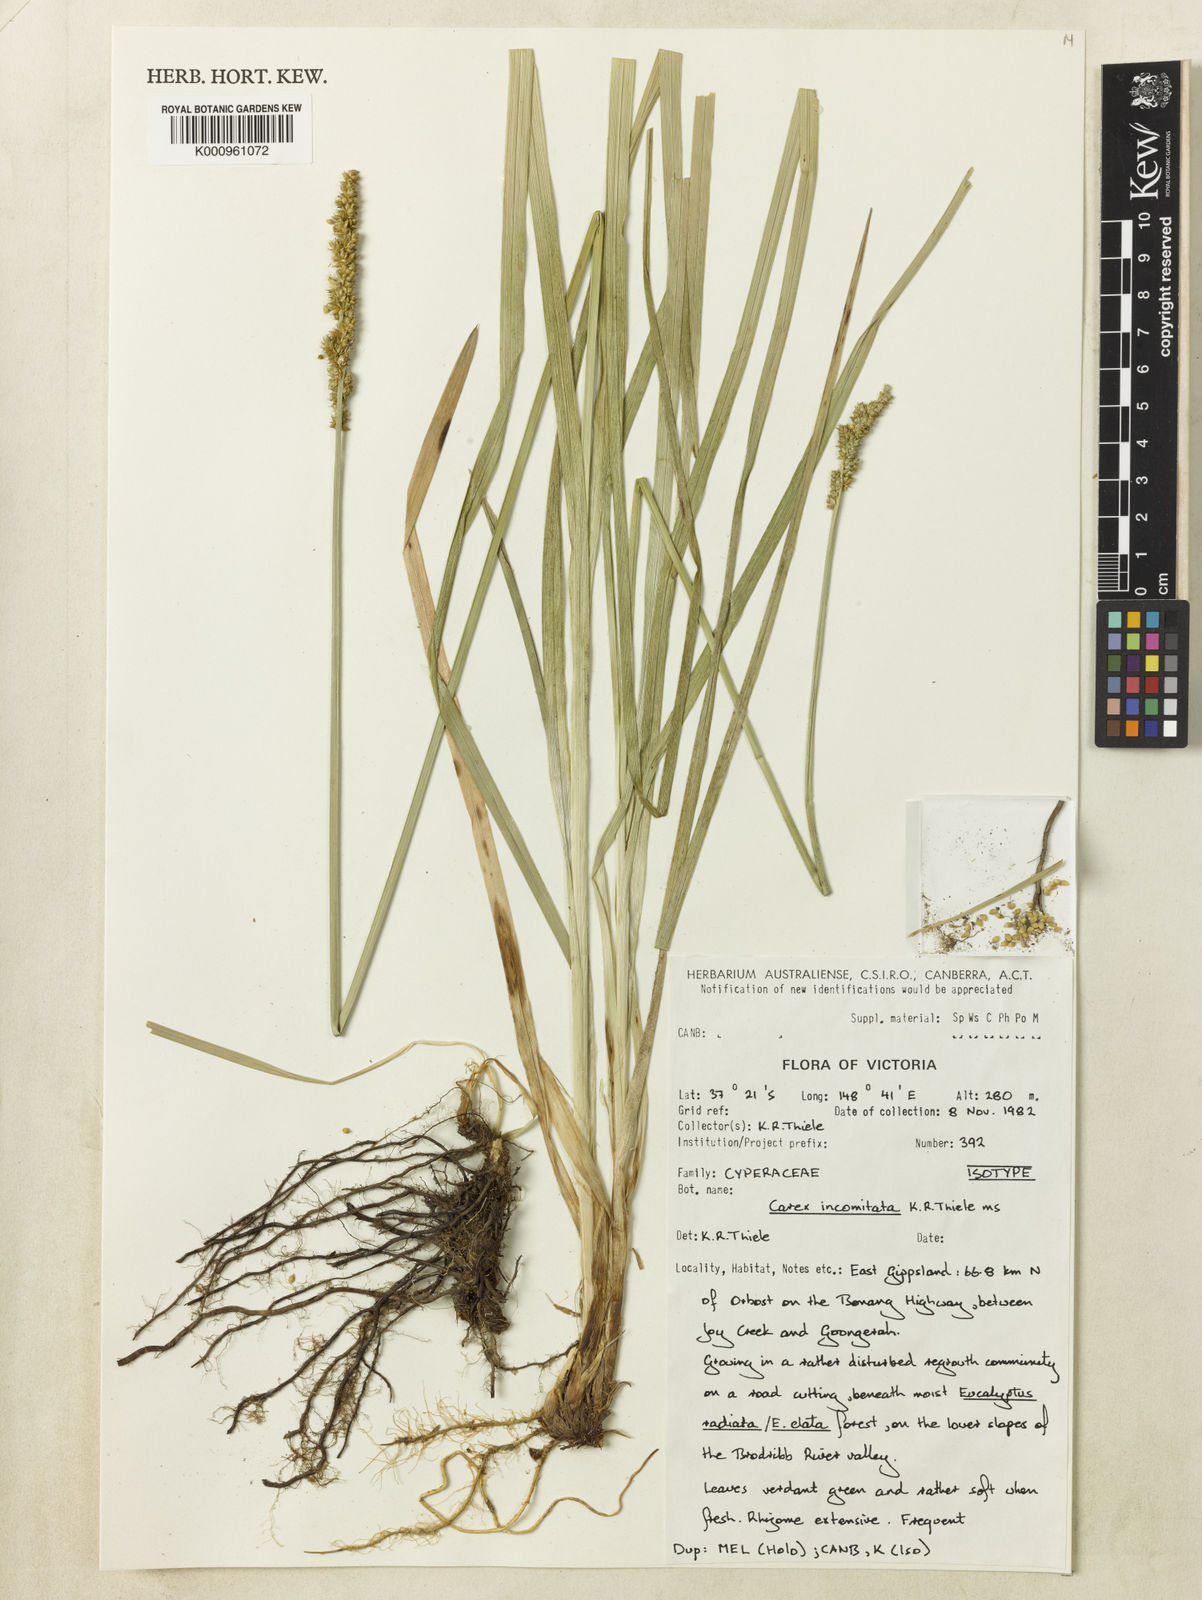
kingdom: Plantae
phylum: Tracheophyta
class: Liliopsida
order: Poales
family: Cyperaceae
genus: Carex
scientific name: Carex incomitata
